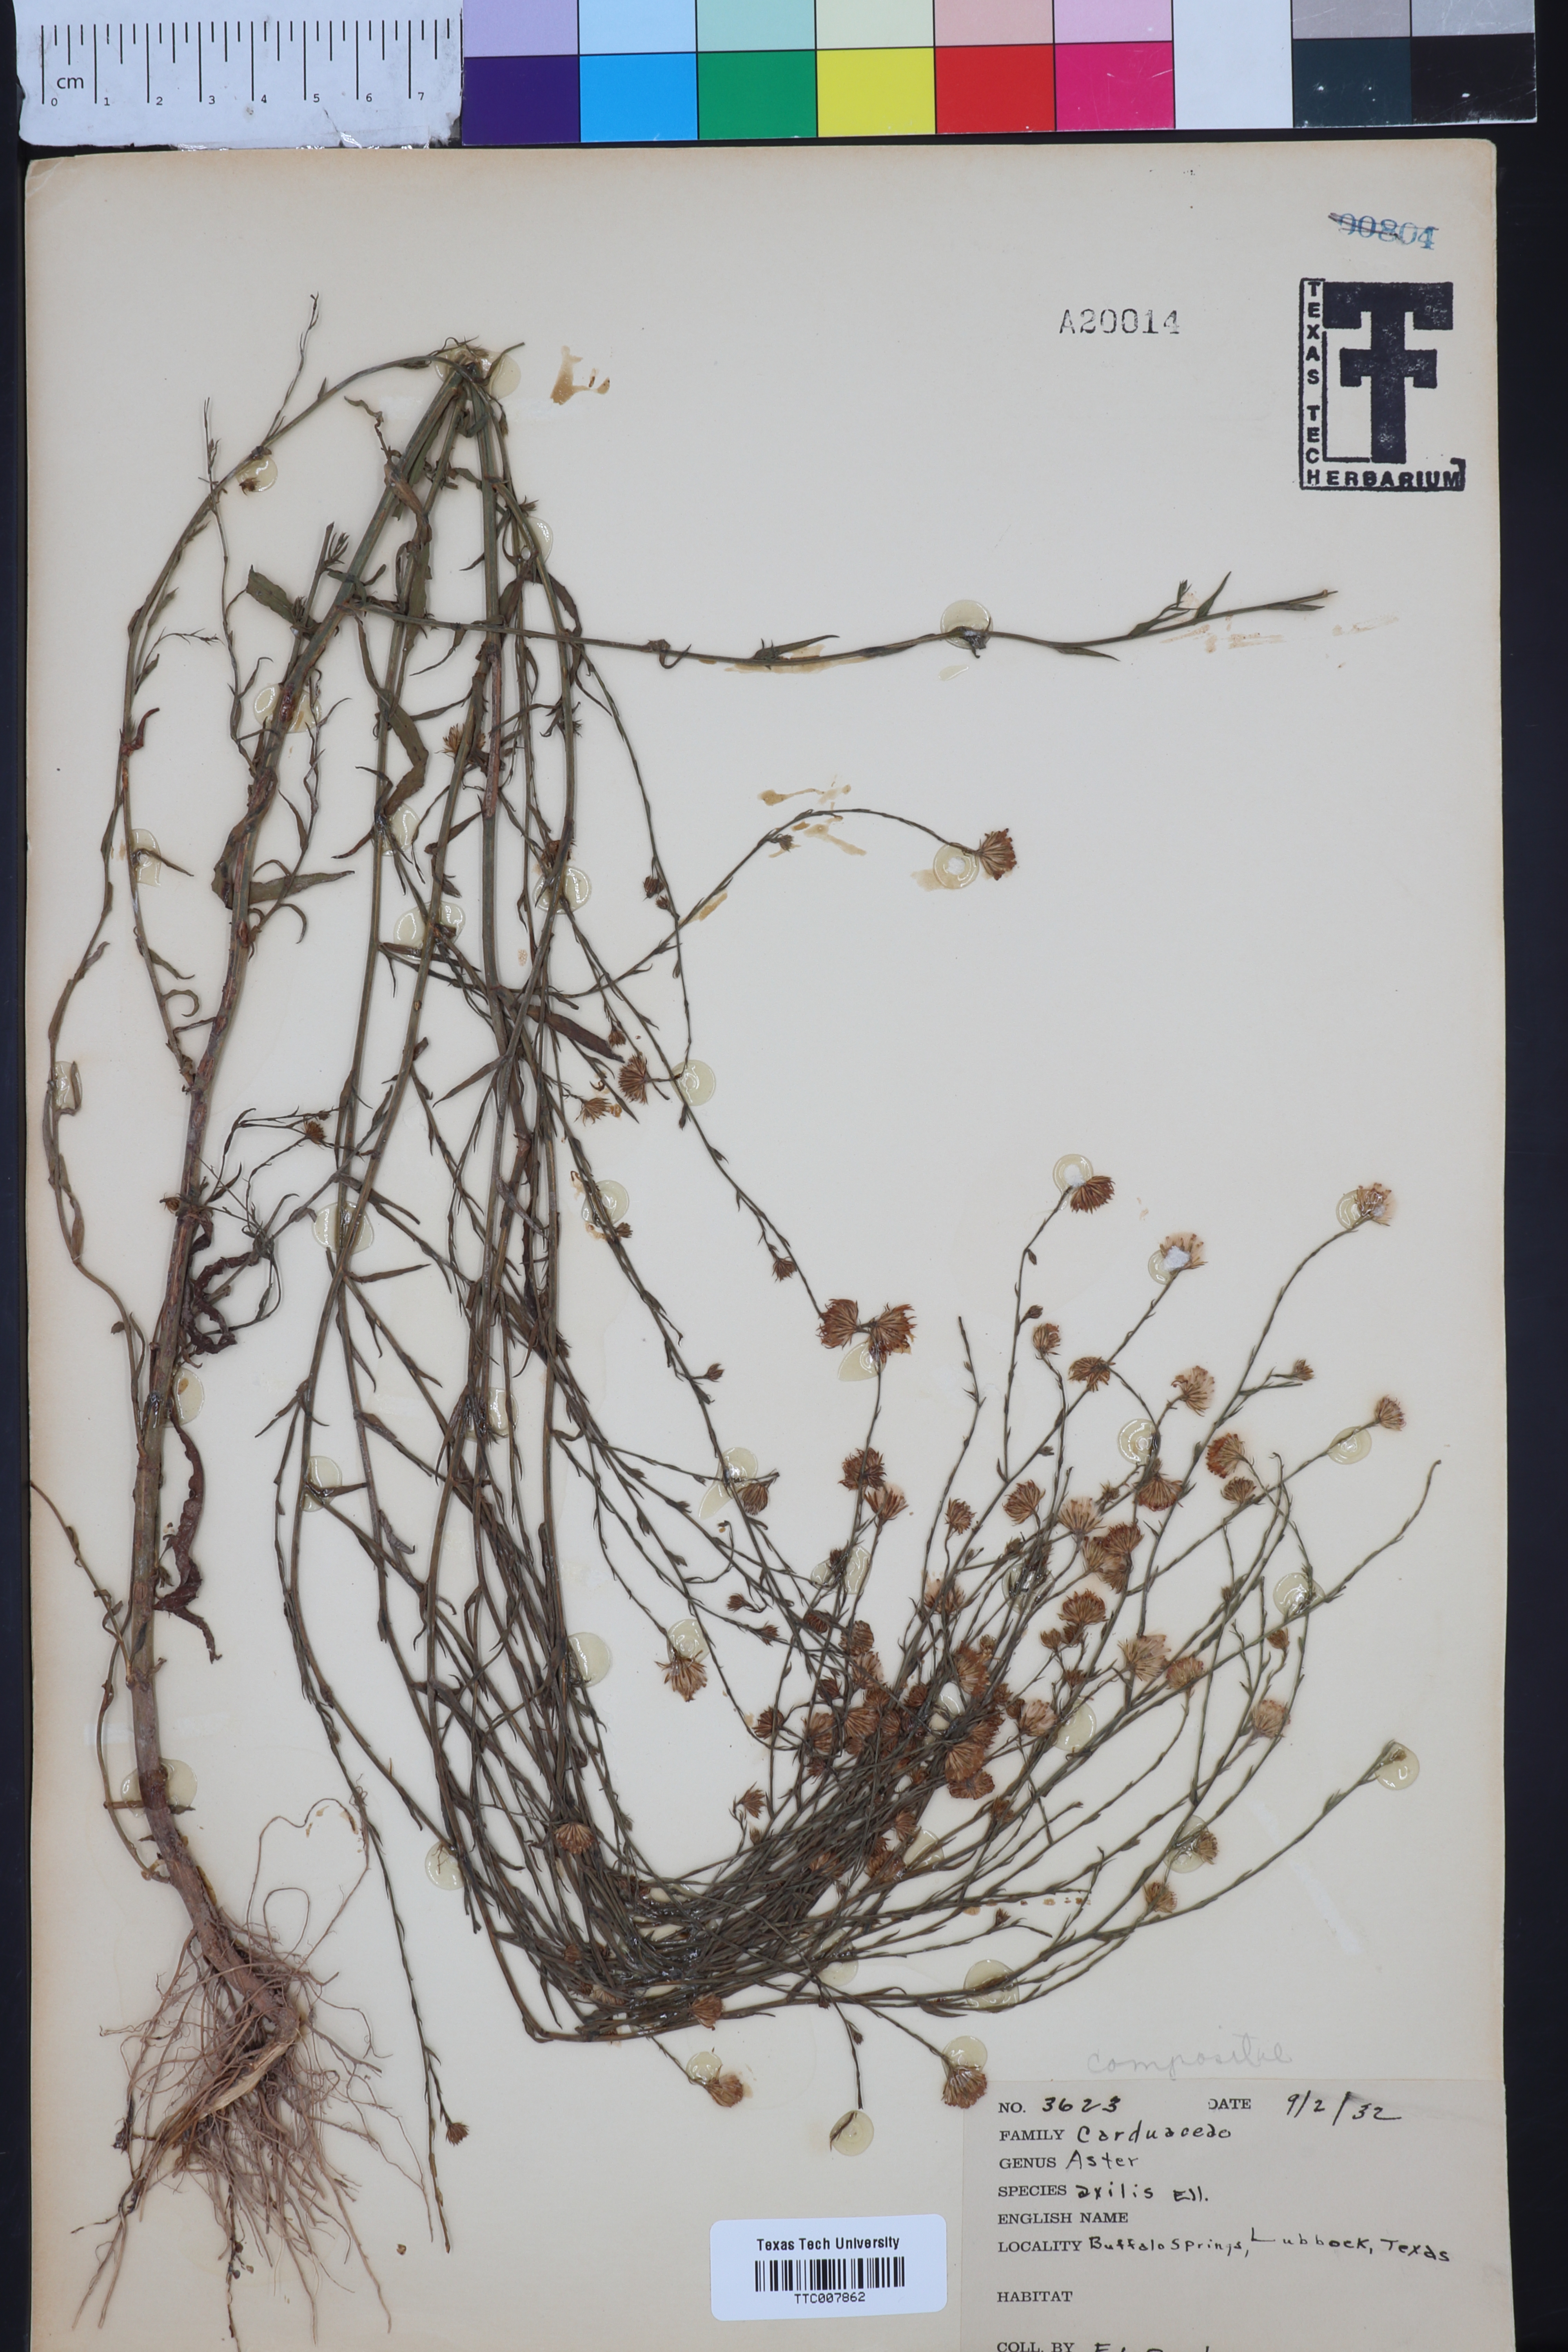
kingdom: Plantae
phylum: Tracheophyta
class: Magnoliopsida
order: Asterales
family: Asteraceae
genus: Olearia
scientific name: Olearia axillaris
